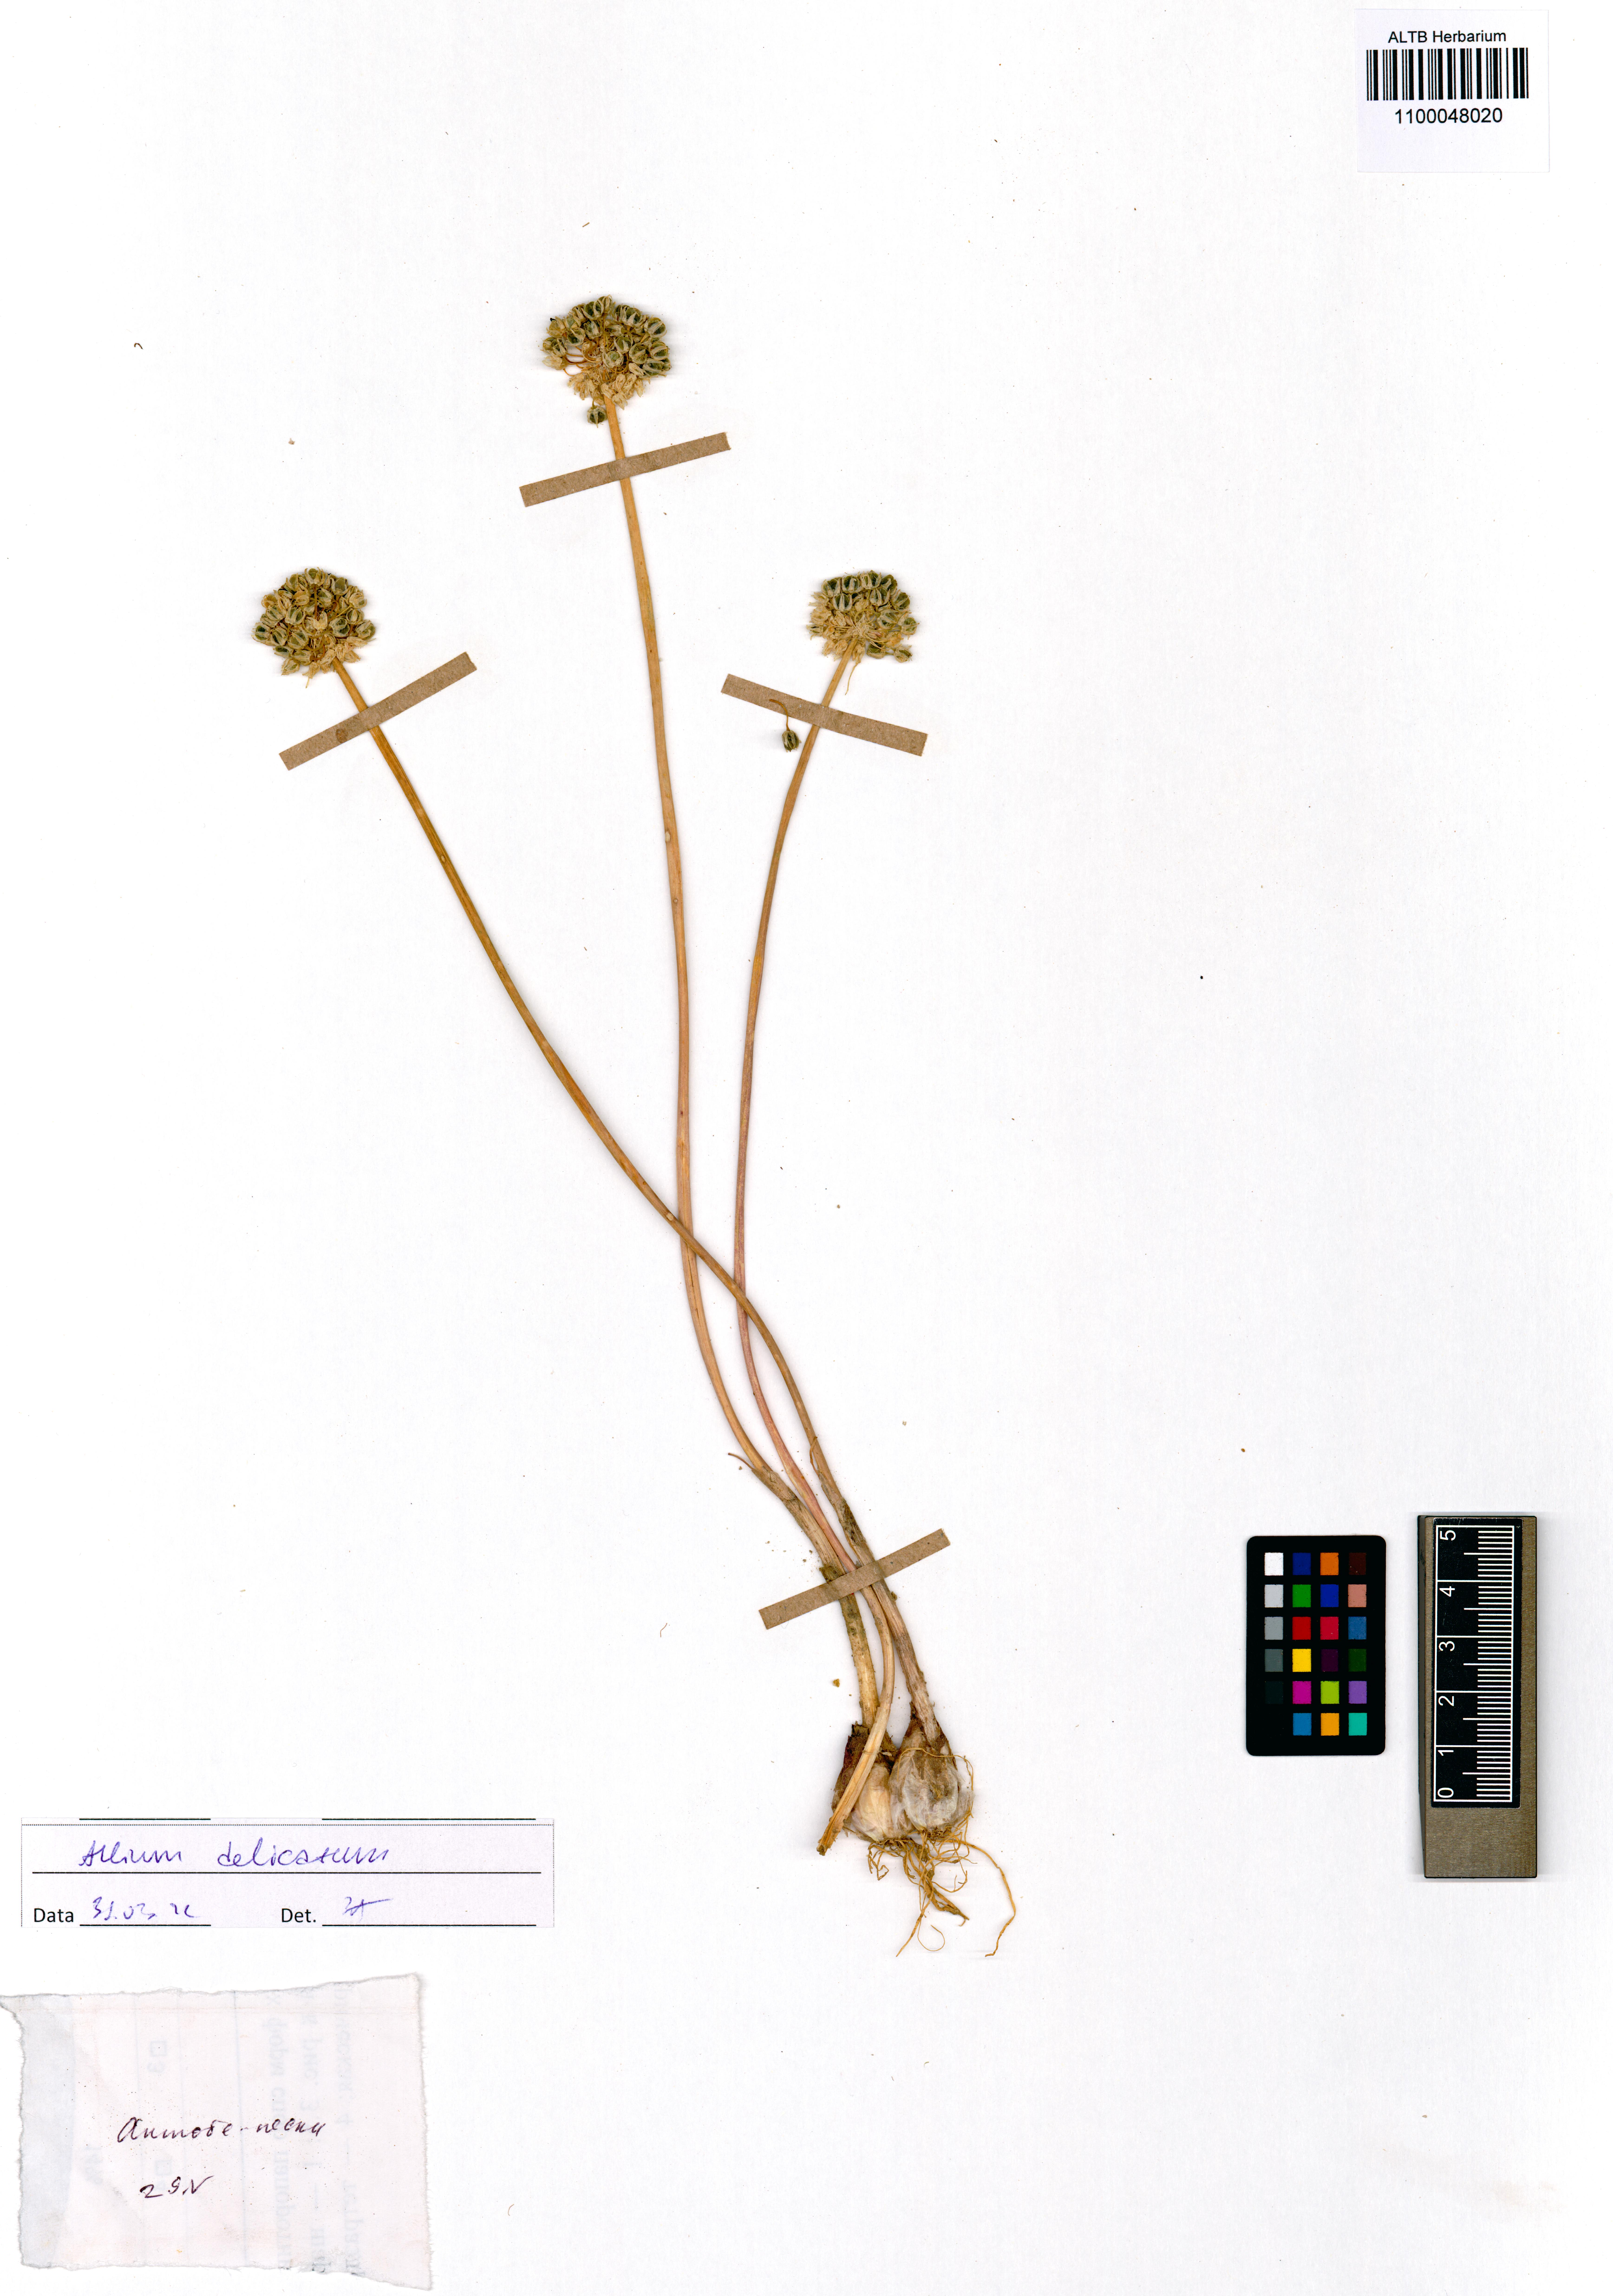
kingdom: Plantae
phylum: Tracheophyta
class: Liliopsida
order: Asparagales
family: Amaryllidaceae
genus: Allium
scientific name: Allium delicatulum
